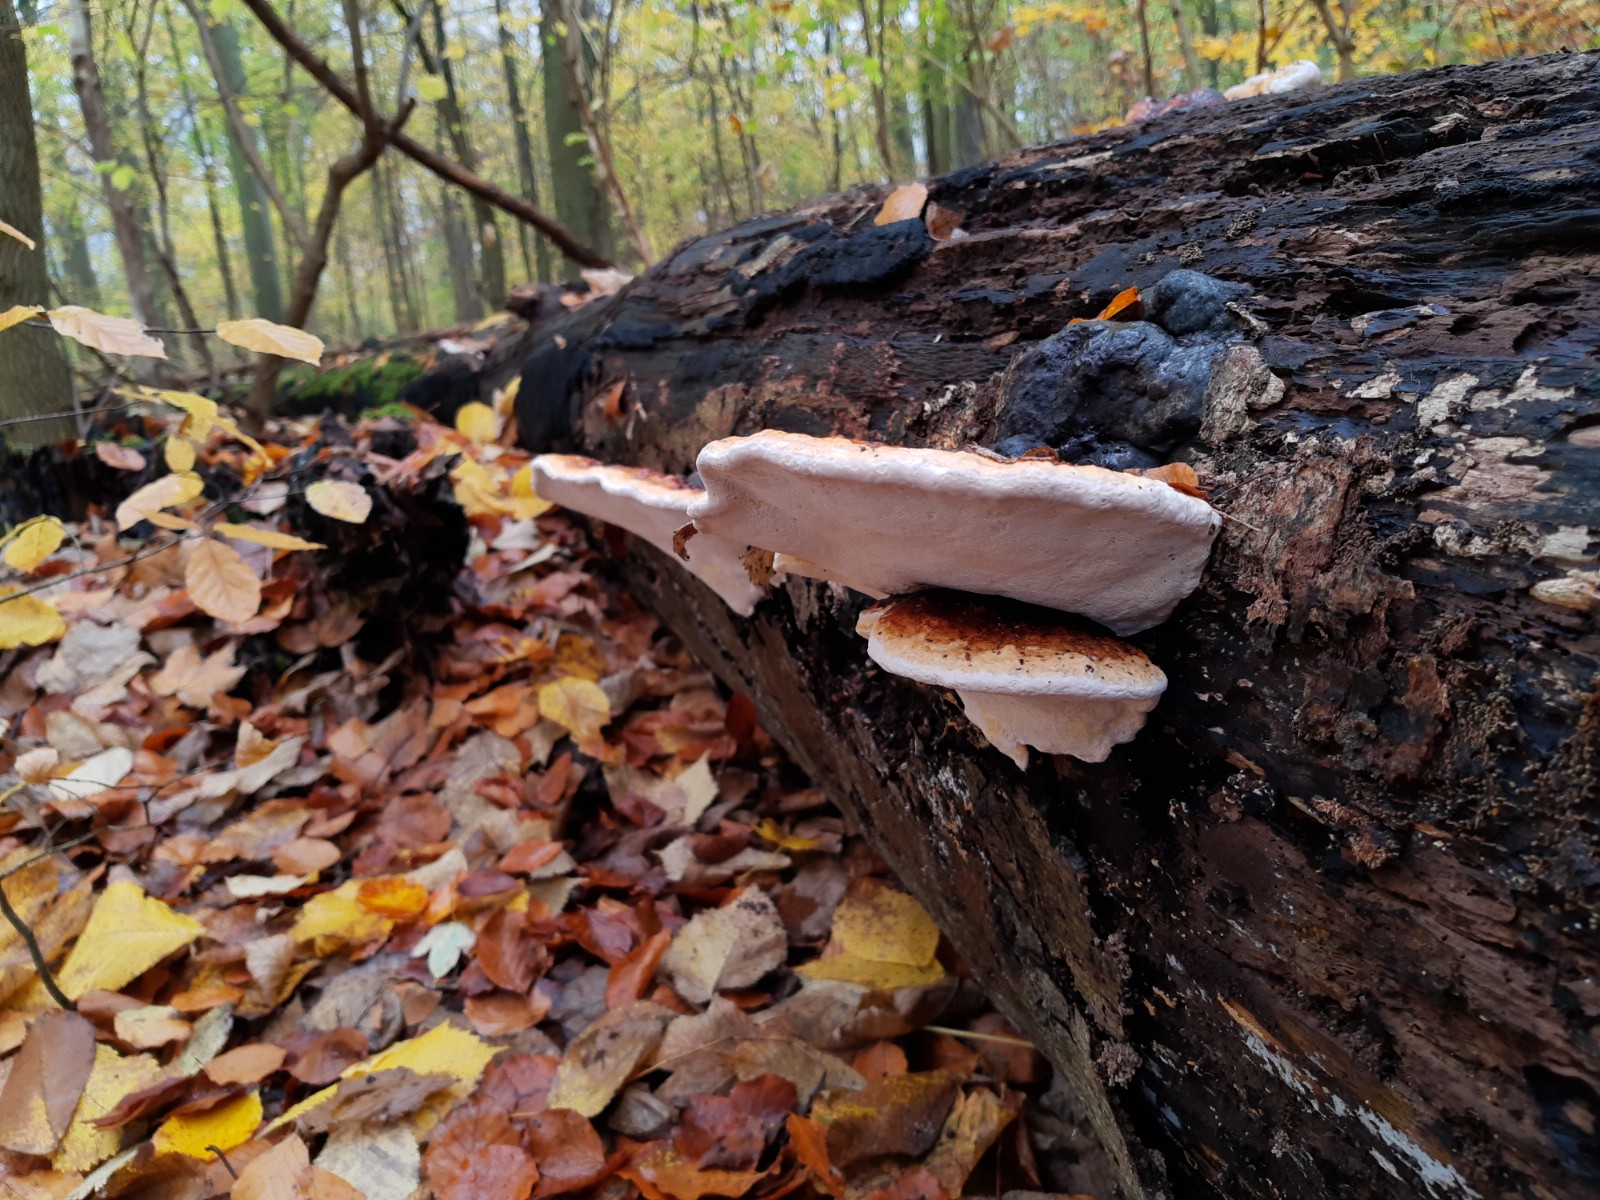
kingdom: Fungi
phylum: Basidiomycota
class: Agaricomycetes
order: Polyporales
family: Fomitopsidaceae
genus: Fomitopsis
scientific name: Fomitopsis pinicola
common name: randbæltet hovporesvamp
